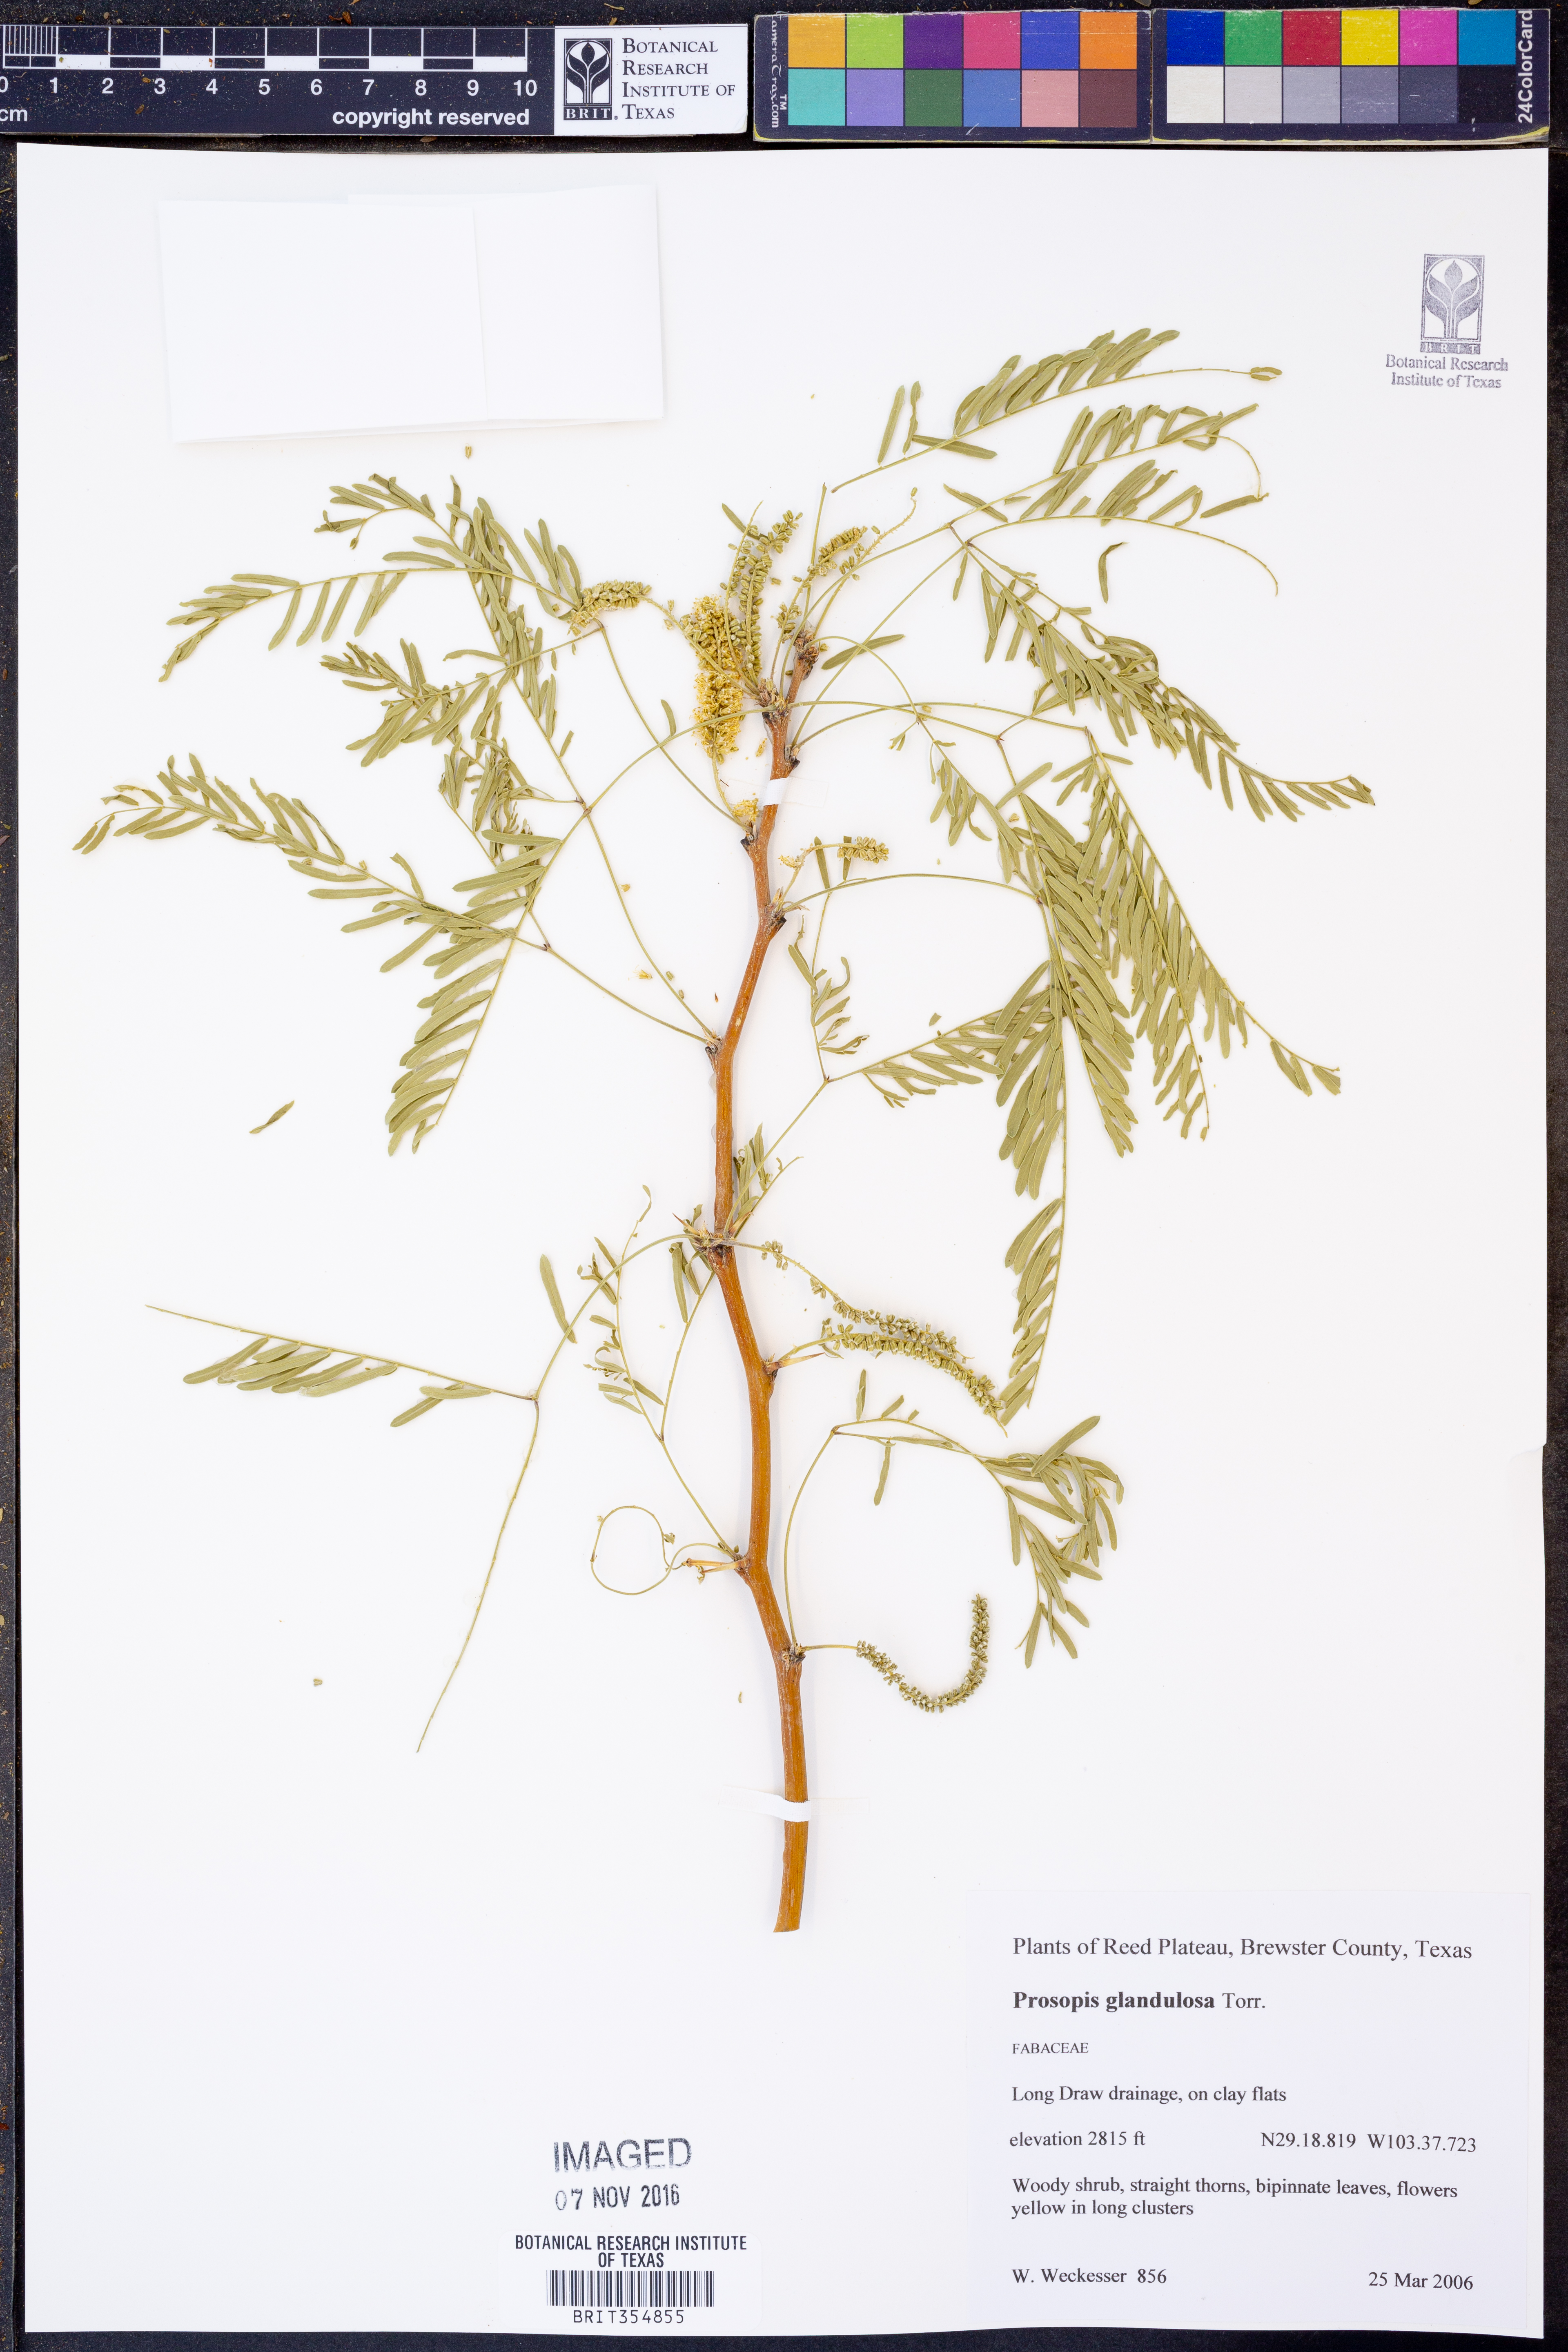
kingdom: Plantae
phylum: Tracheophyta
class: Magnoliopsida
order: Fabales
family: Fabaceae
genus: Prosopis
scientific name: Prosopis glandulosa
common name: Honey mesquite
